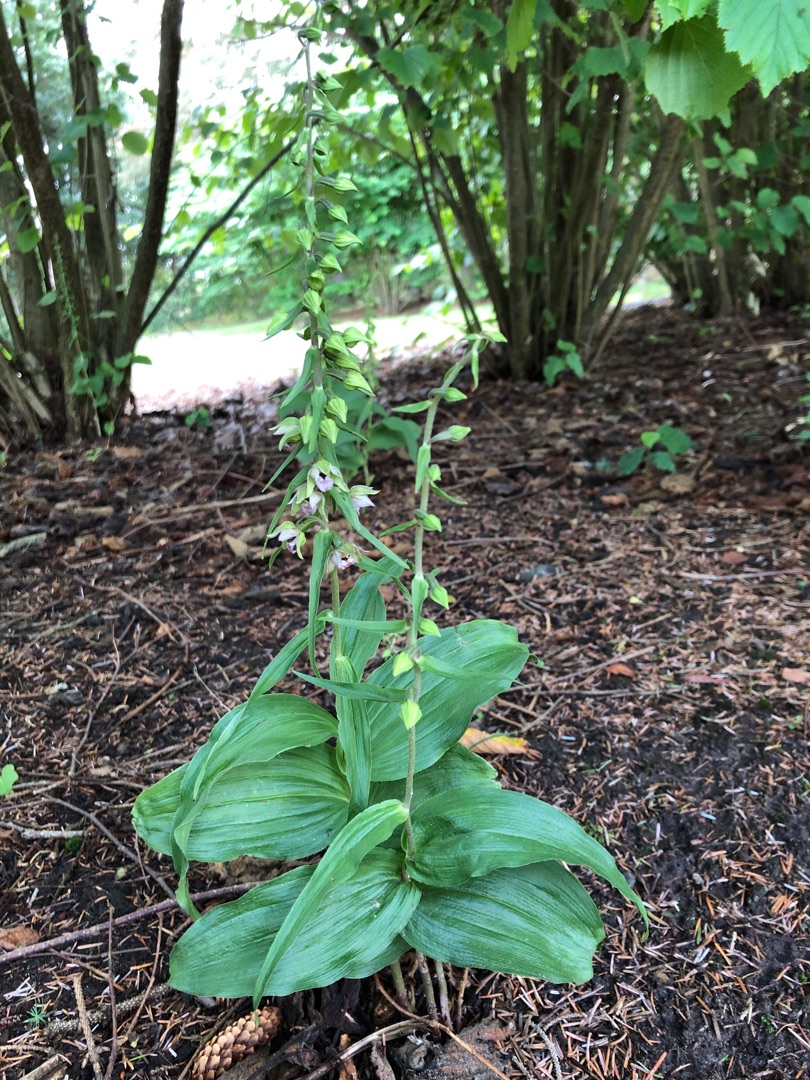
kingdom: Plantae
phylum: Tracheophyta
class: Liliopsida
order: Asparagales
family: Orchidaceae
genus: Epipactis
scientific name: Epipactis helleborine
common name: Skov-hullæbe
